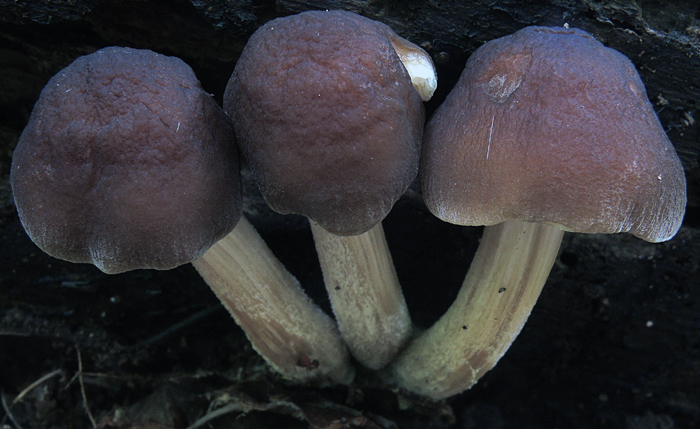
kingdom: Fungi
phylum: Basidiomycota
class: Agaricomycetes
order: Agaricales
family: Pluteaceae
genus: Pluteus
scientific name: Pluteus phlebophorus
